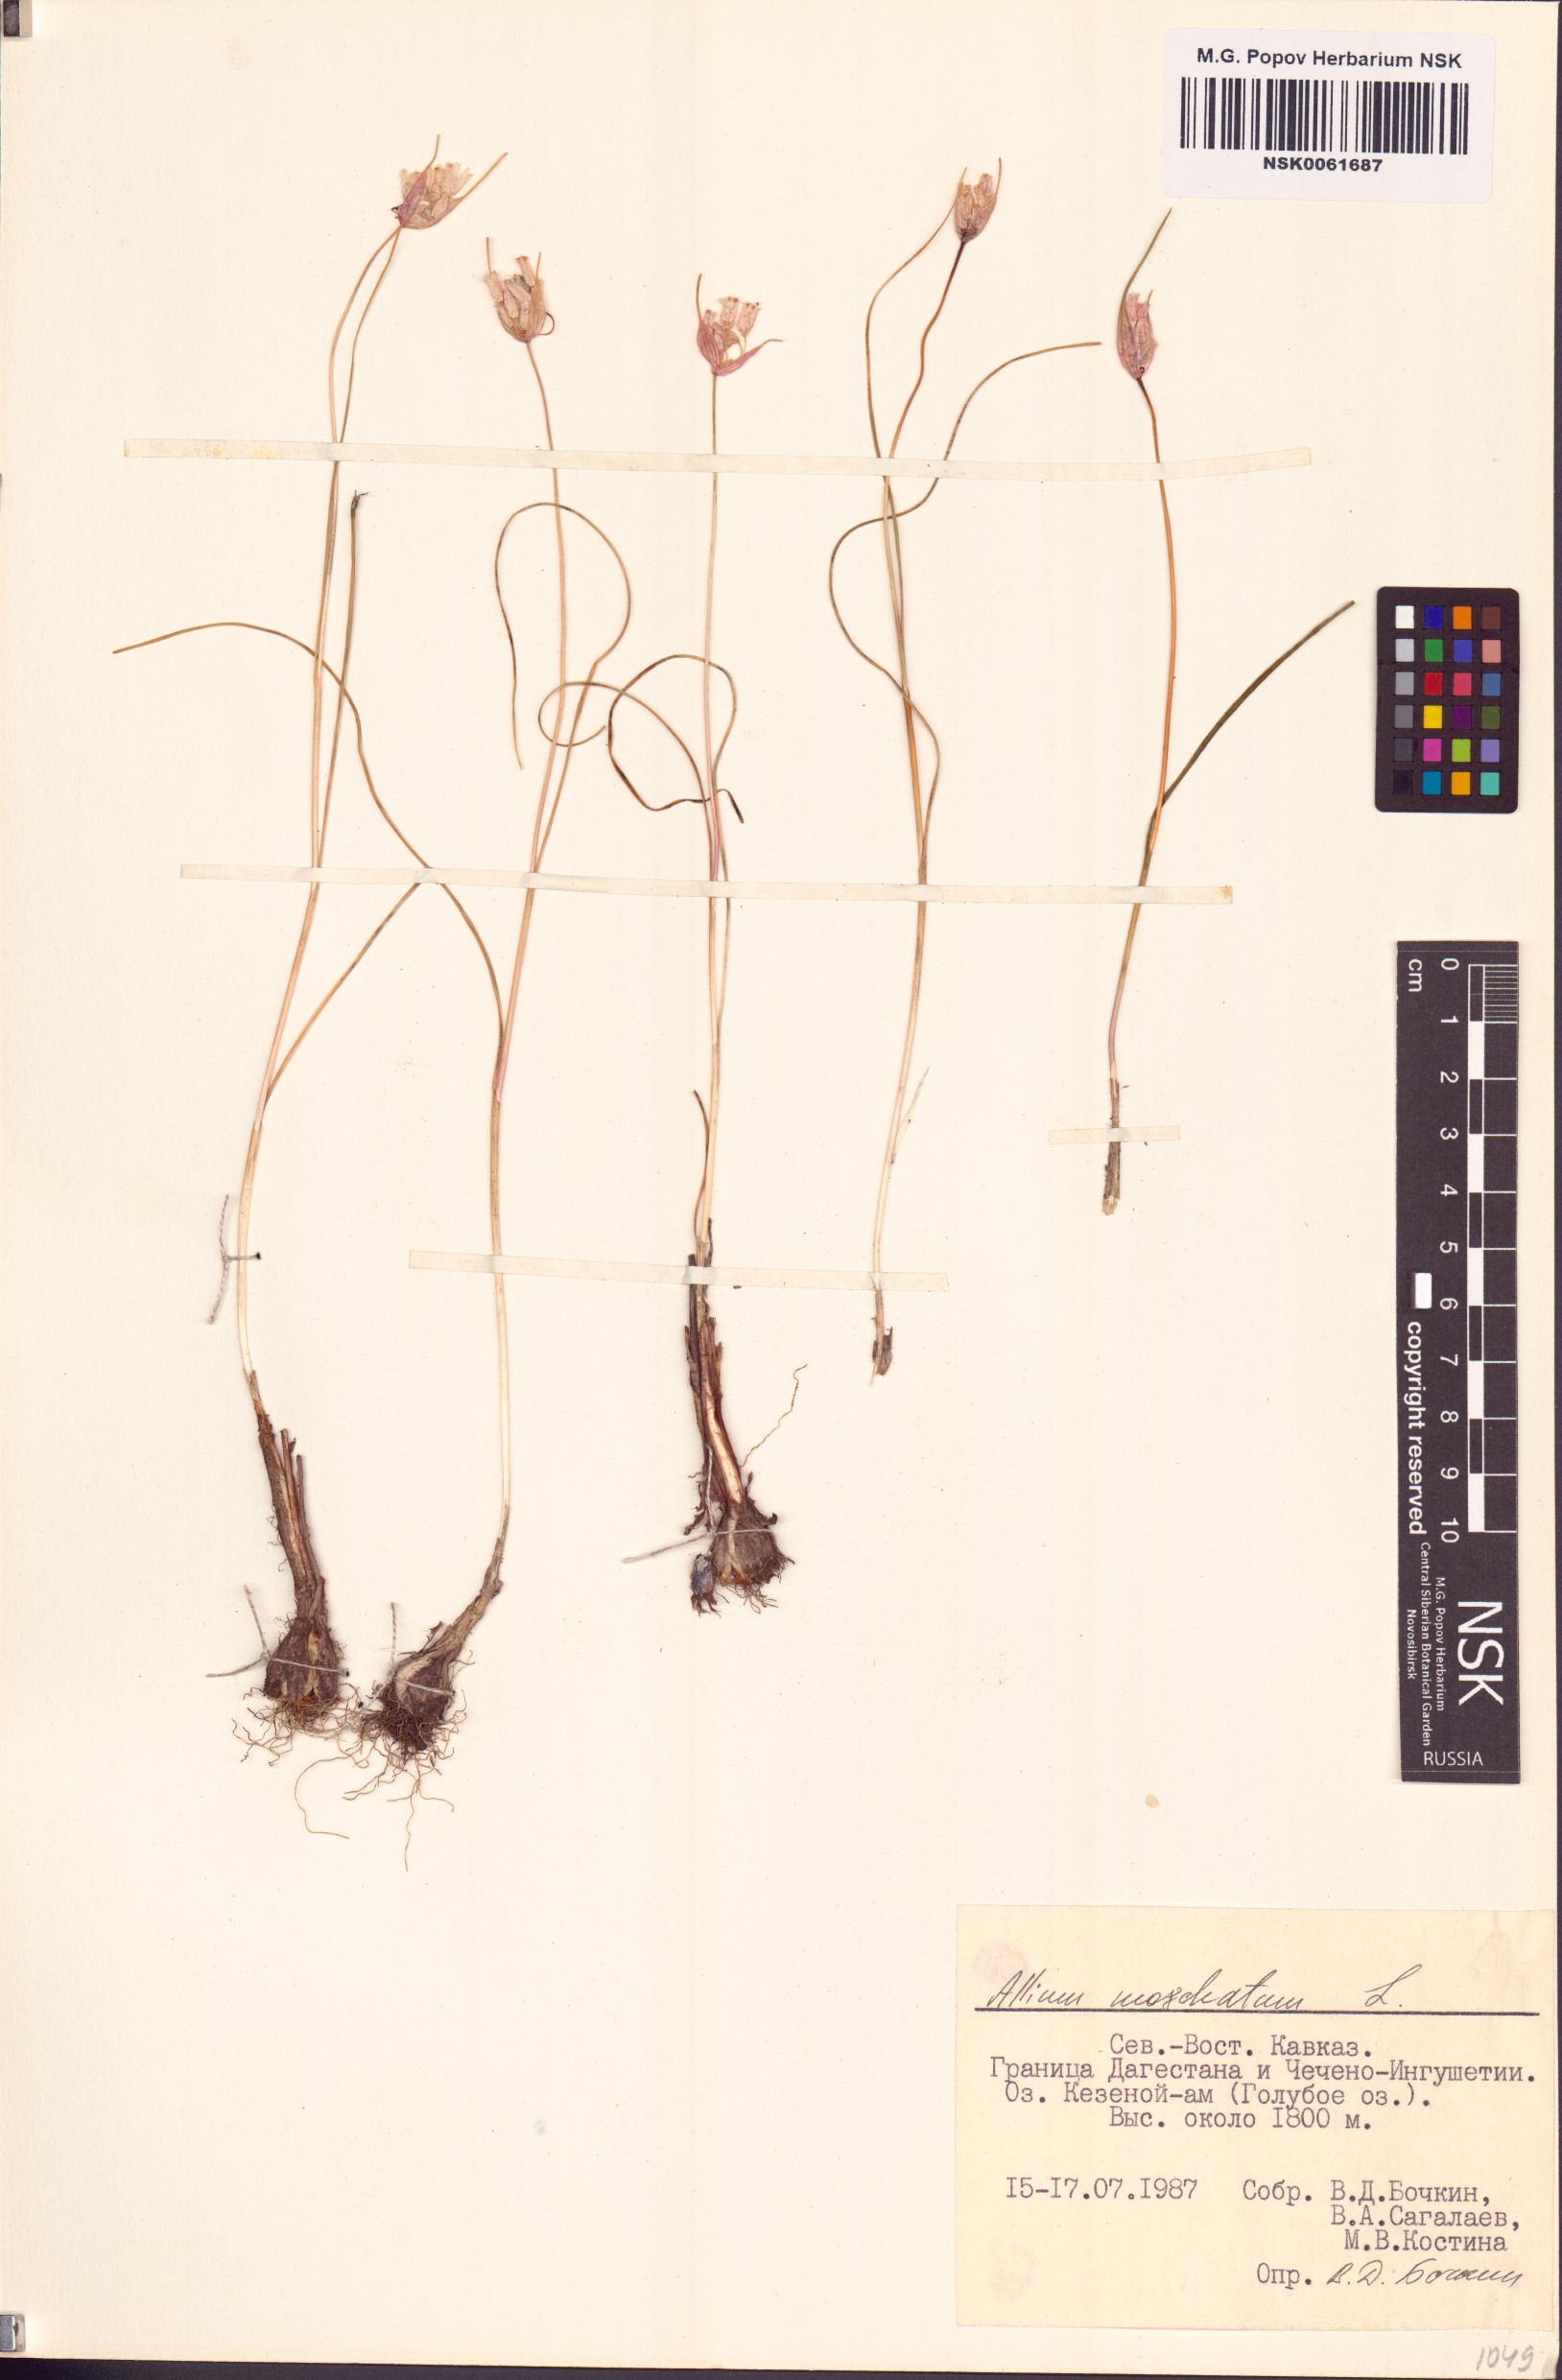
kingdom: Plantae
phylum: Tracheophyta
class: Liliopsida
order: Asparagales
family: Amaryllidaceae
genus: Allium
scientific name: Allium moschatum
